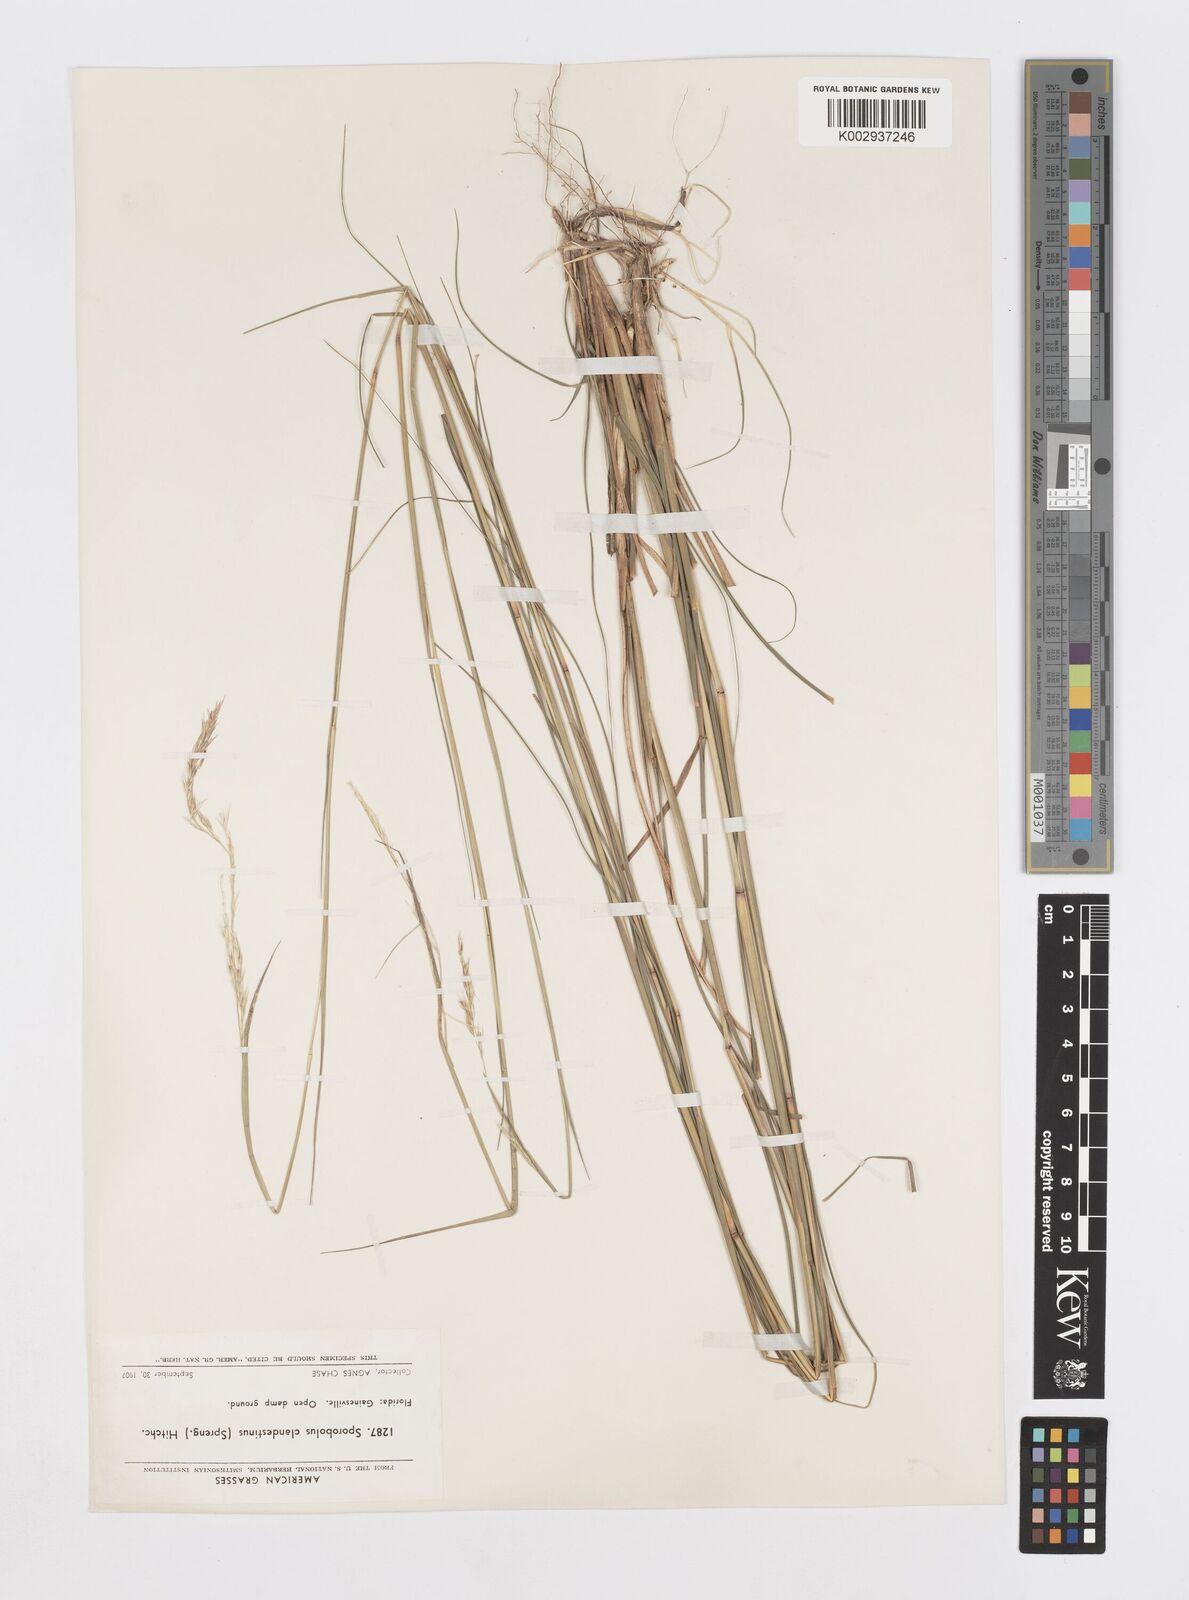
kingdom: Plantae
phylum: Tracheophyta
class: Liliopsida
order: Poales
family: Poaceae
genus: Sporobolus
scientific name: Sporobolus clandestinus
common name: Hidden dropseed
